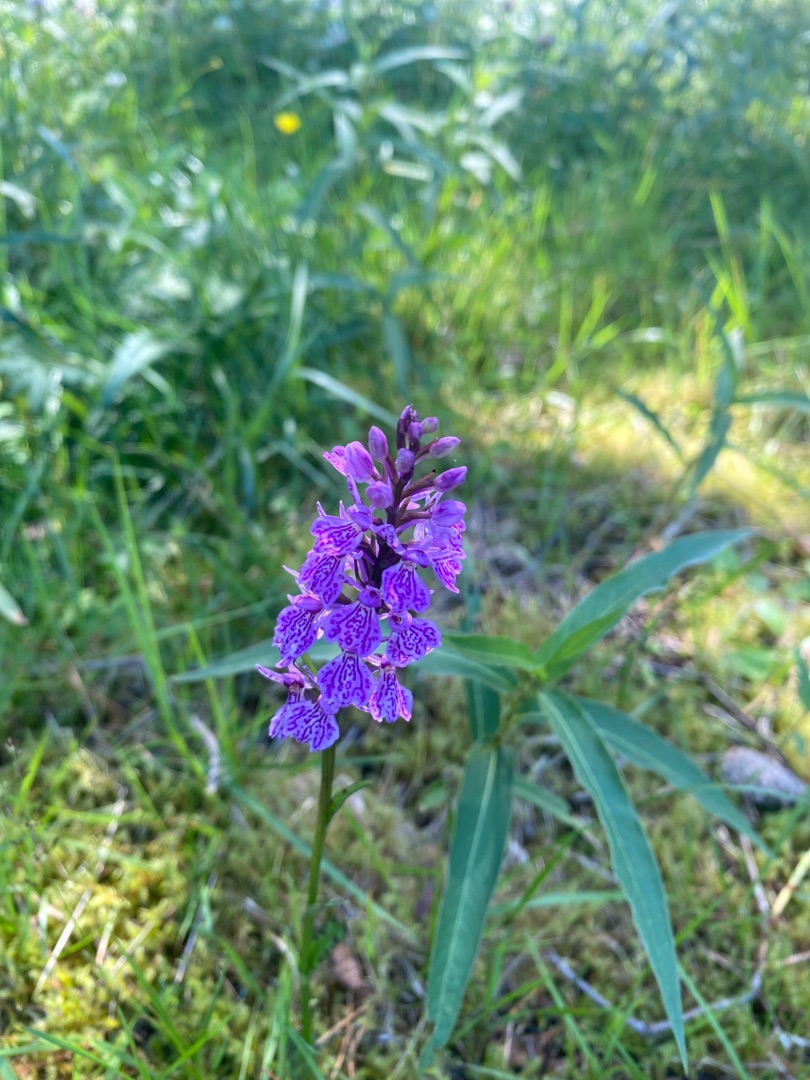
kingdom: Plantae
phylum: Tracheophyta
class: Liliopsida
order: Asparagales
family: Orchidaceae
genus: Dactylorhiza
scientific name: Dactylorhiza maculata
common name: Plettet gøgeurt
